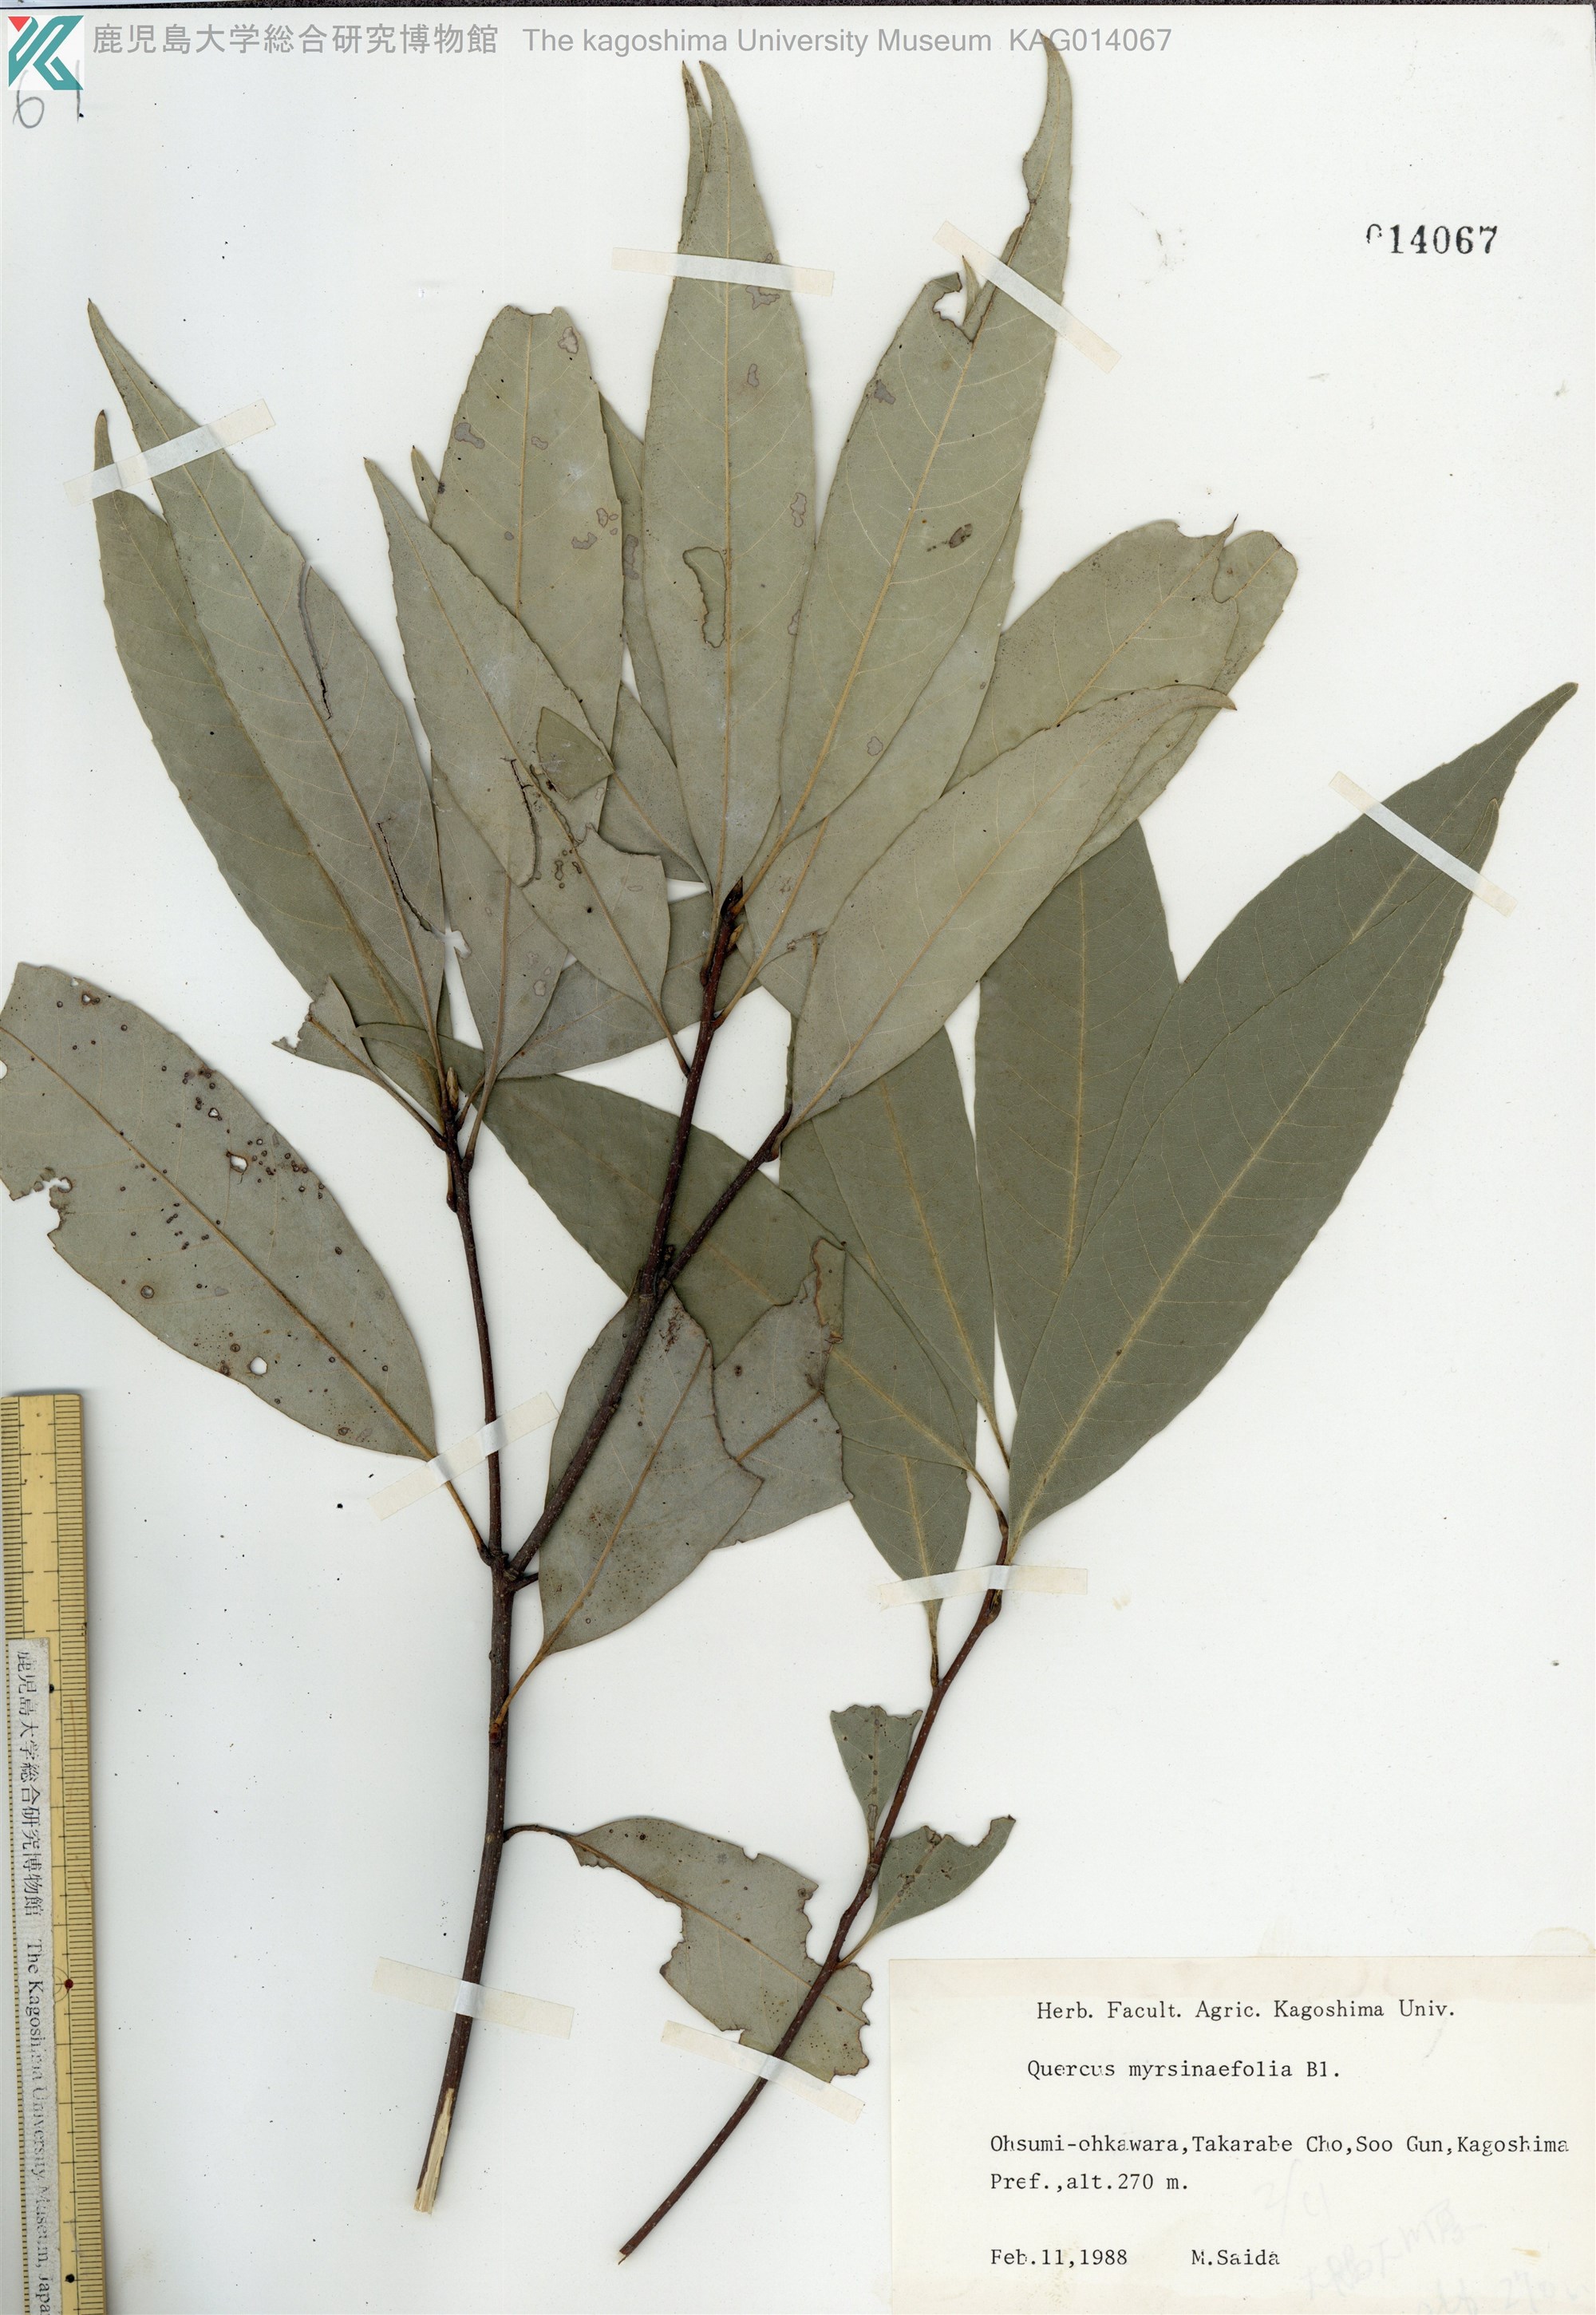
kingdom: Plantae
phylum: Tracheophyta
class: Magnoliopsida
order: Fagales
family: Fagaceae
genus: Quercus
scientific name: Quercus myrsinaefolia
